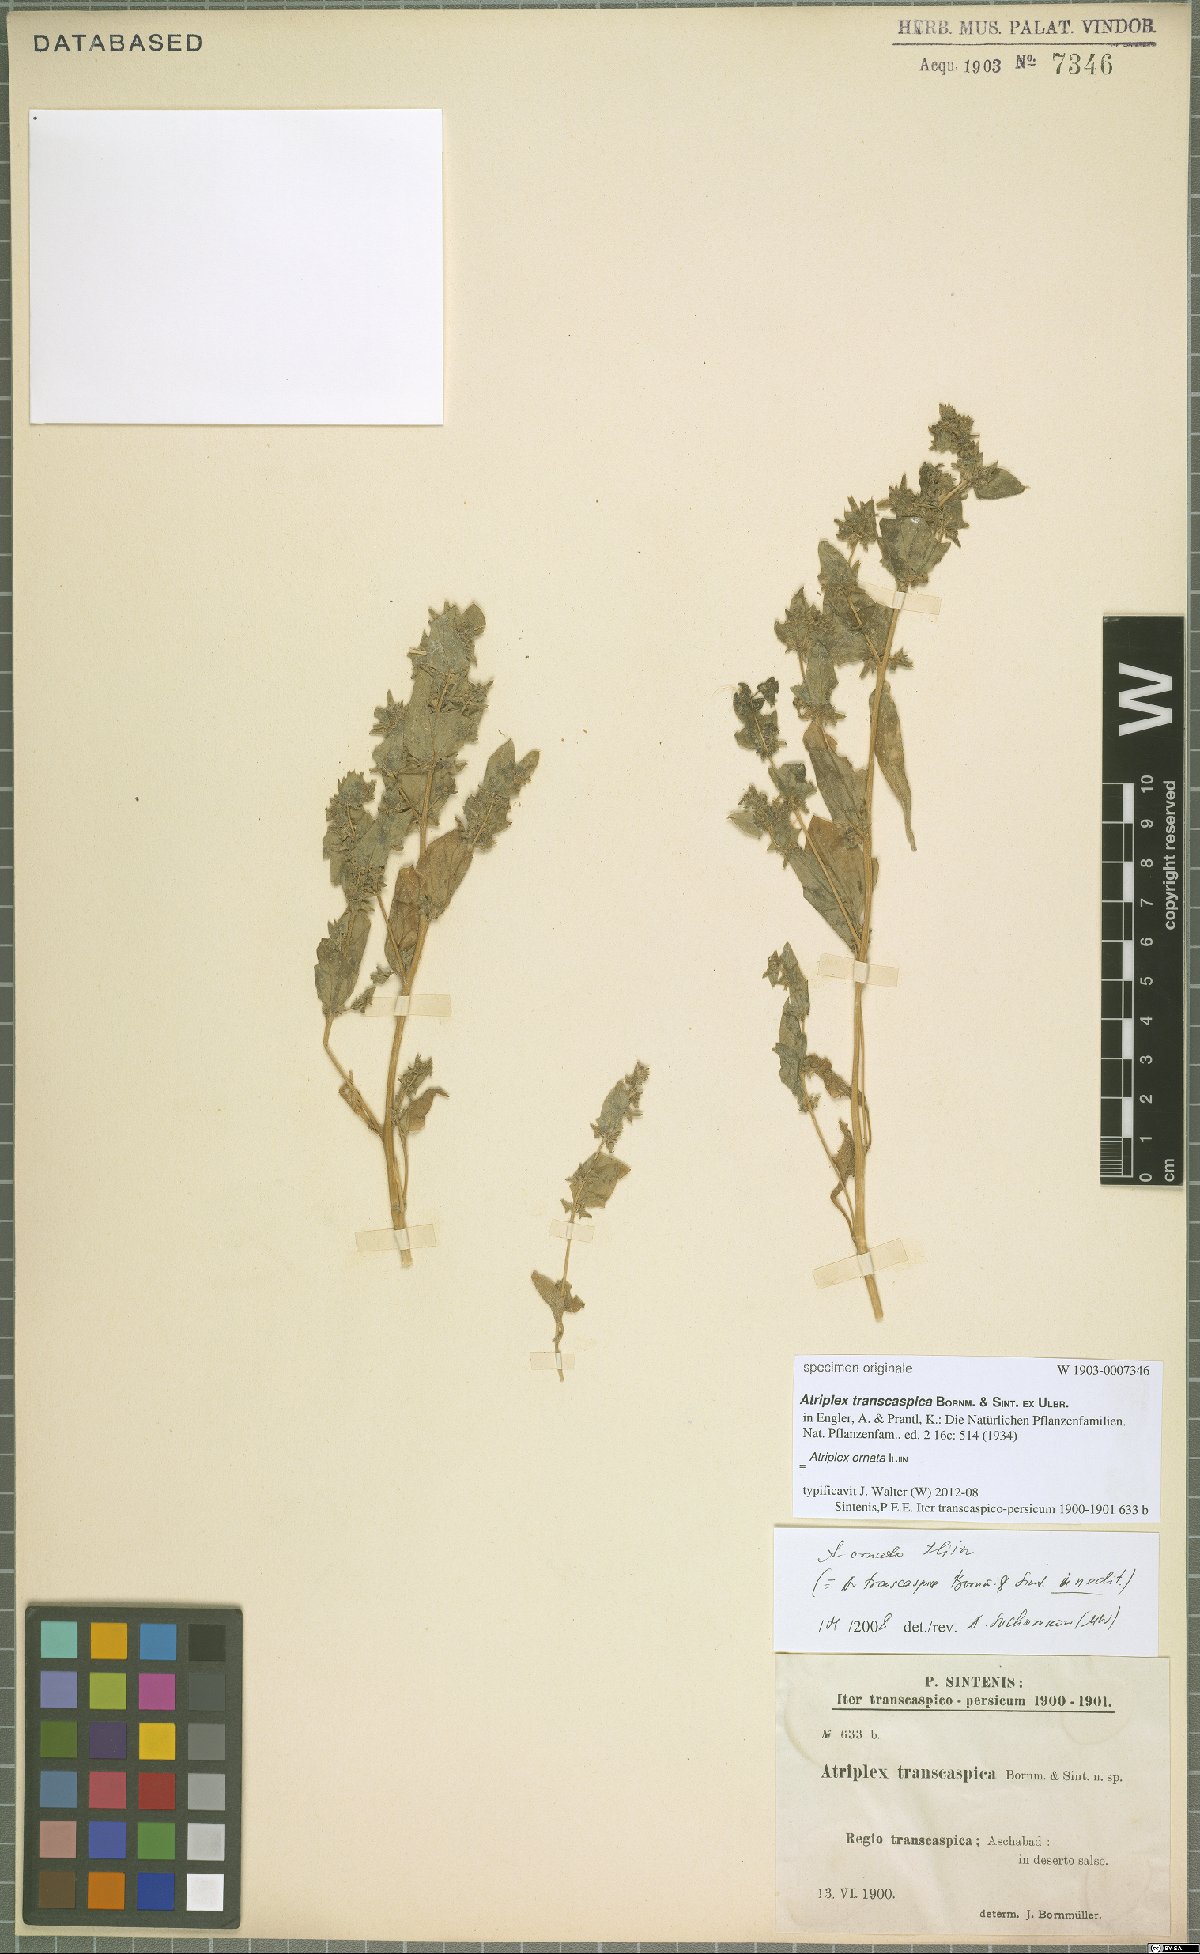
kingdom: Plantae
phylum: Tracheophyta
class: Magnoliopsida
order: Caryophyllales
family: Amaranthaceae
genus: Atriplex
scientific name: Atriplex ornata
